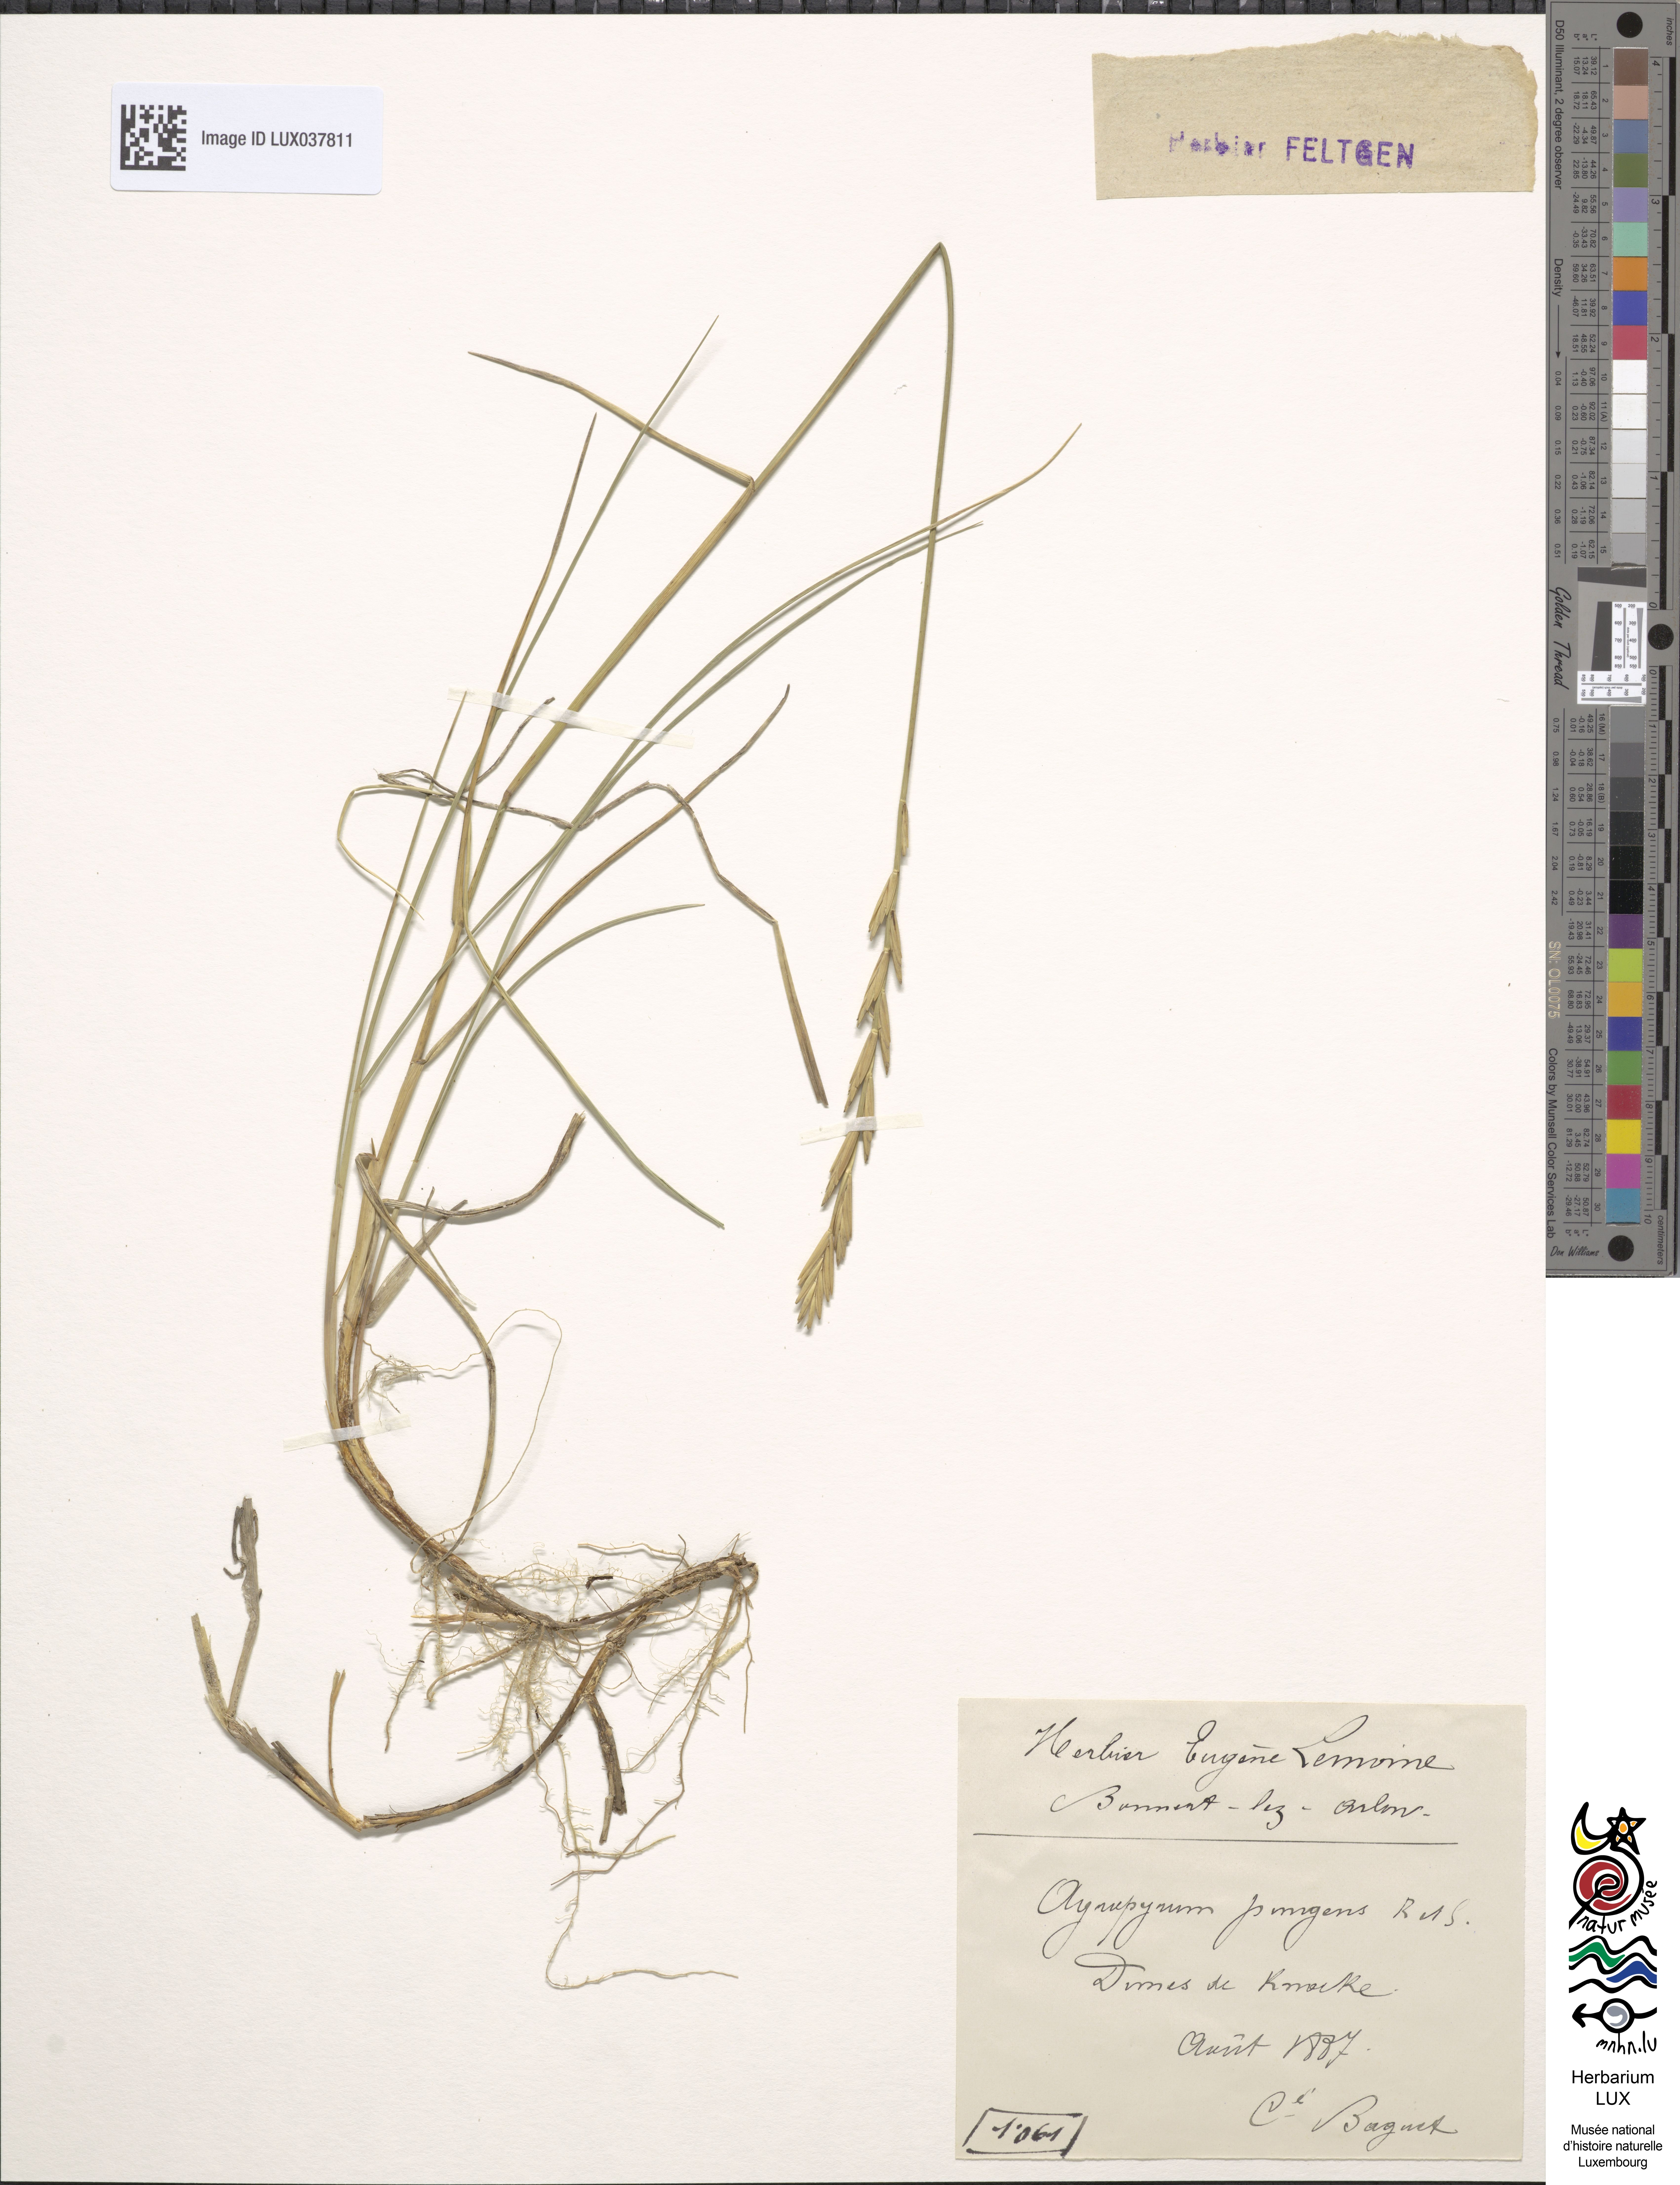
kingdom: Plantae
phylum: Tracheophyta
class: Liliopsida
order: Poales
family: Poaceae
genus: Elymus
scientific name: Elymus pungens
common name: Sea couch
